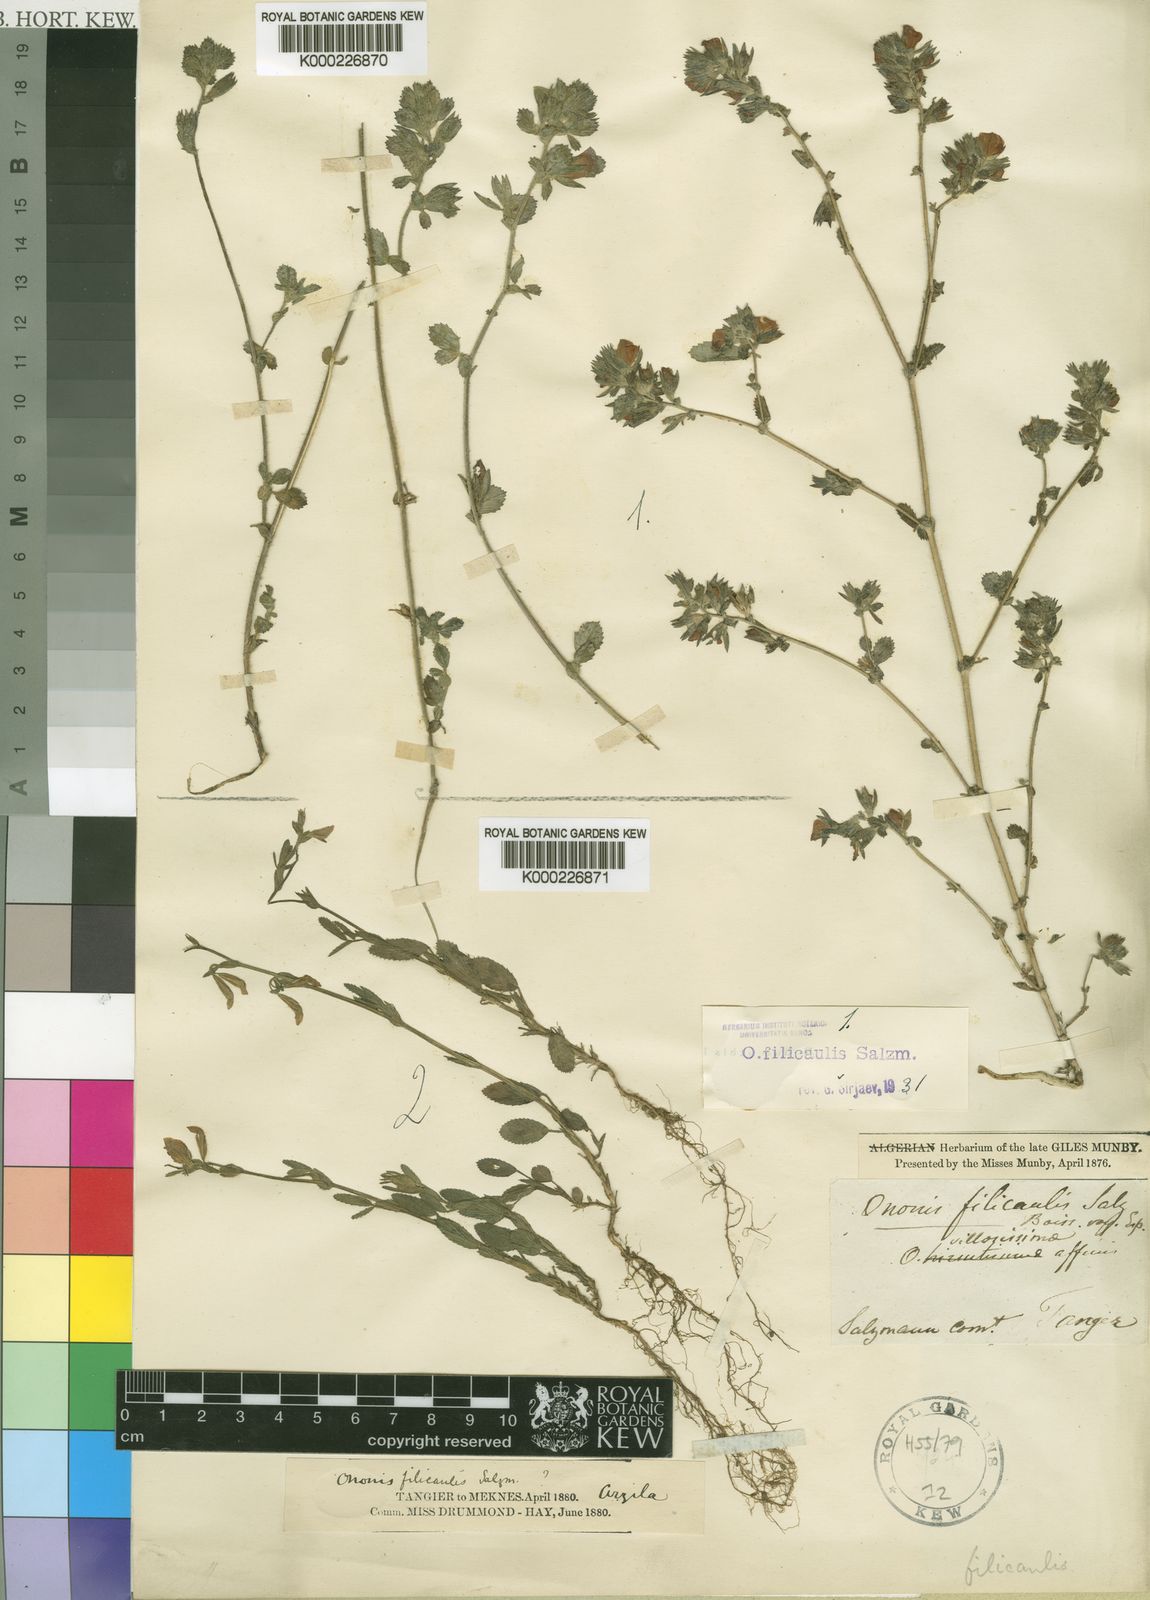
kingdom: Plantae
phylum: Tracheophyta
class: Magnoliopsida
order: Fabales
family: Fabaceae
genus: Ononis
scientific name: Ononis
